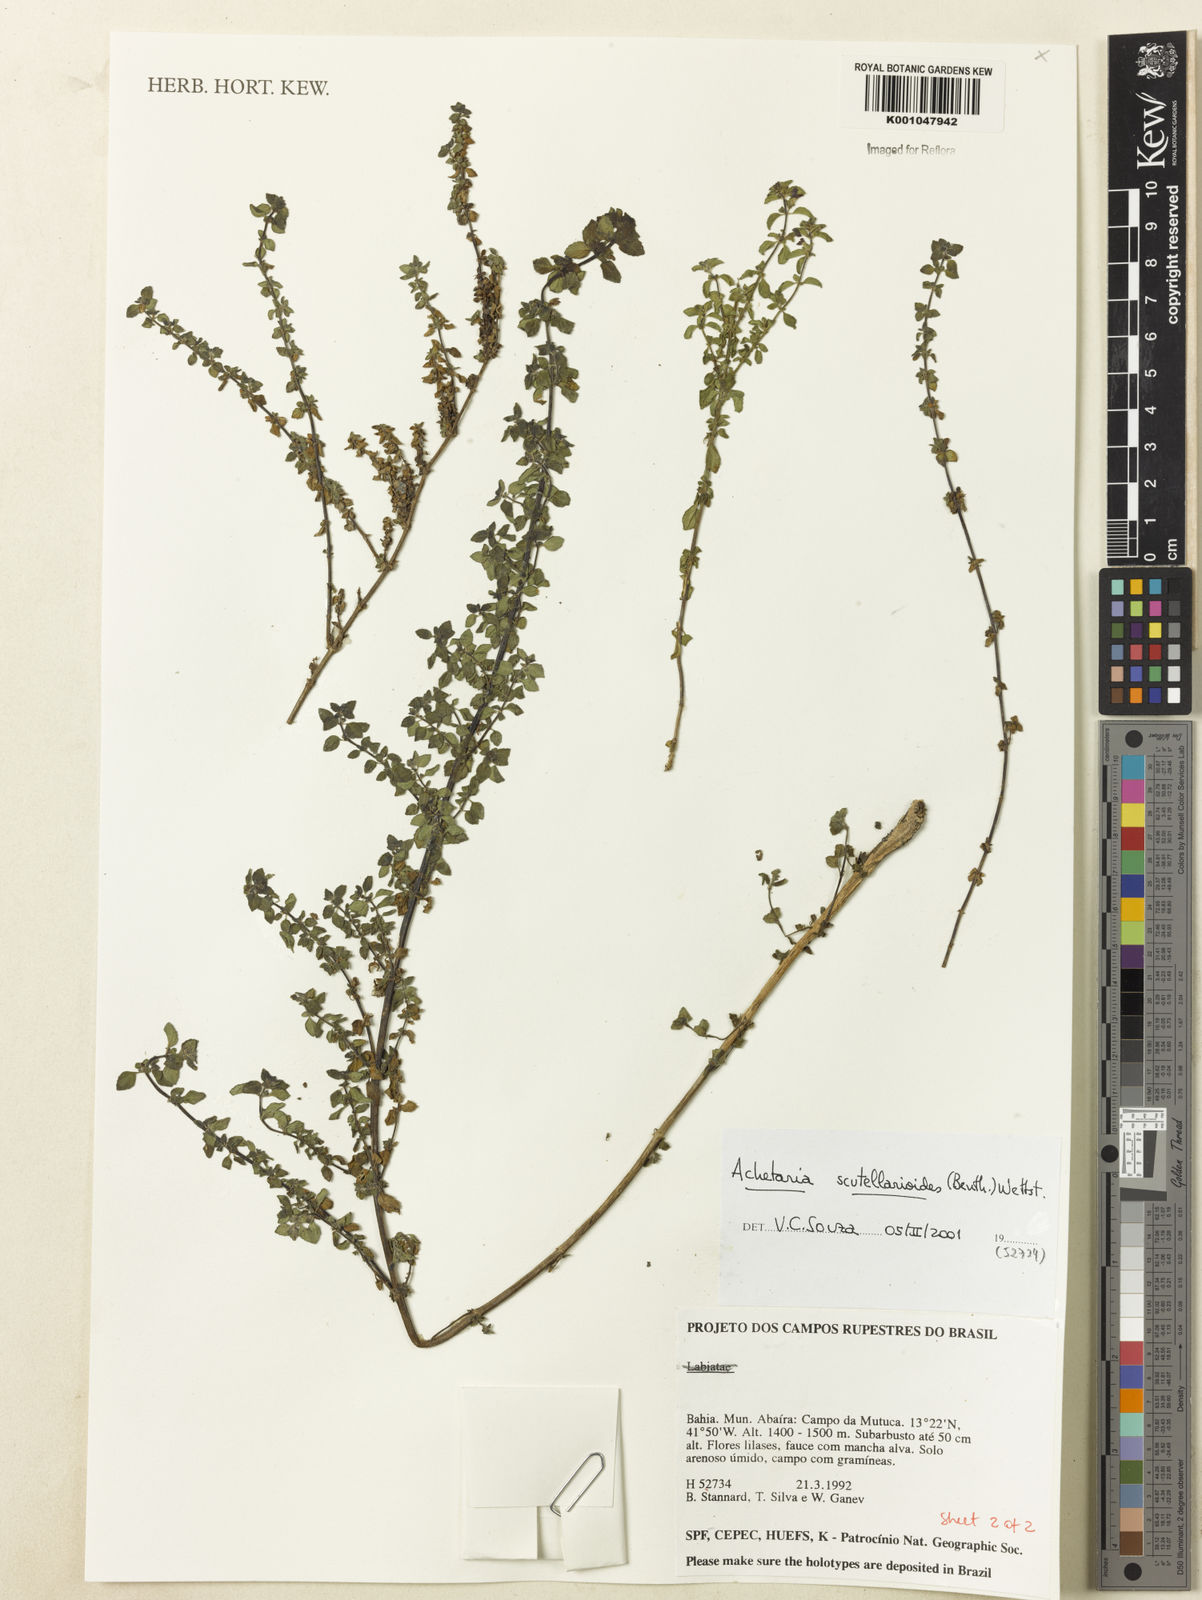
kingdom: Plantae
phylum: Tracheophyta
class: Magnoliopsida
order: Lamiales
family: Plantaginaceae
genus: Matourea
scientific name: Matourea scutellarioides
